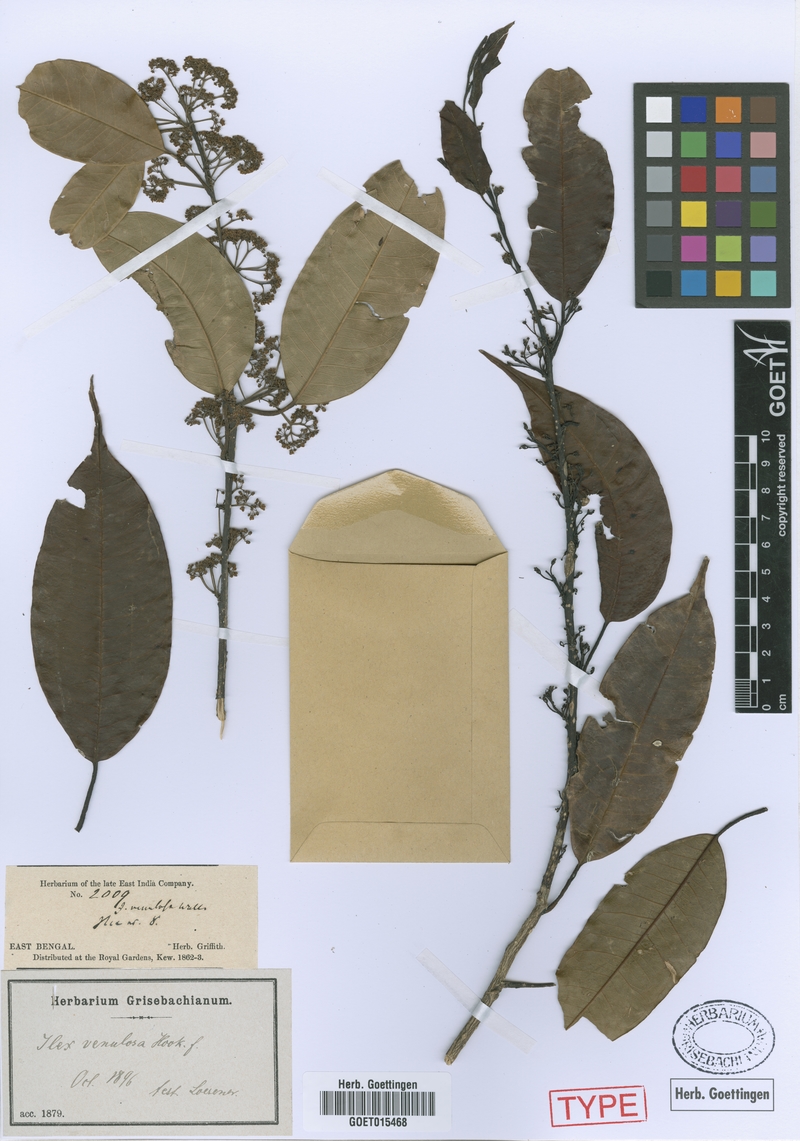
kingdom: Plantae
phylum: Tracheophyta
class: Magnoliopsida
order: Aquifoliales
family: Aquifoliaceae
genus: Ilex
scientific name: Ilex venulosa
